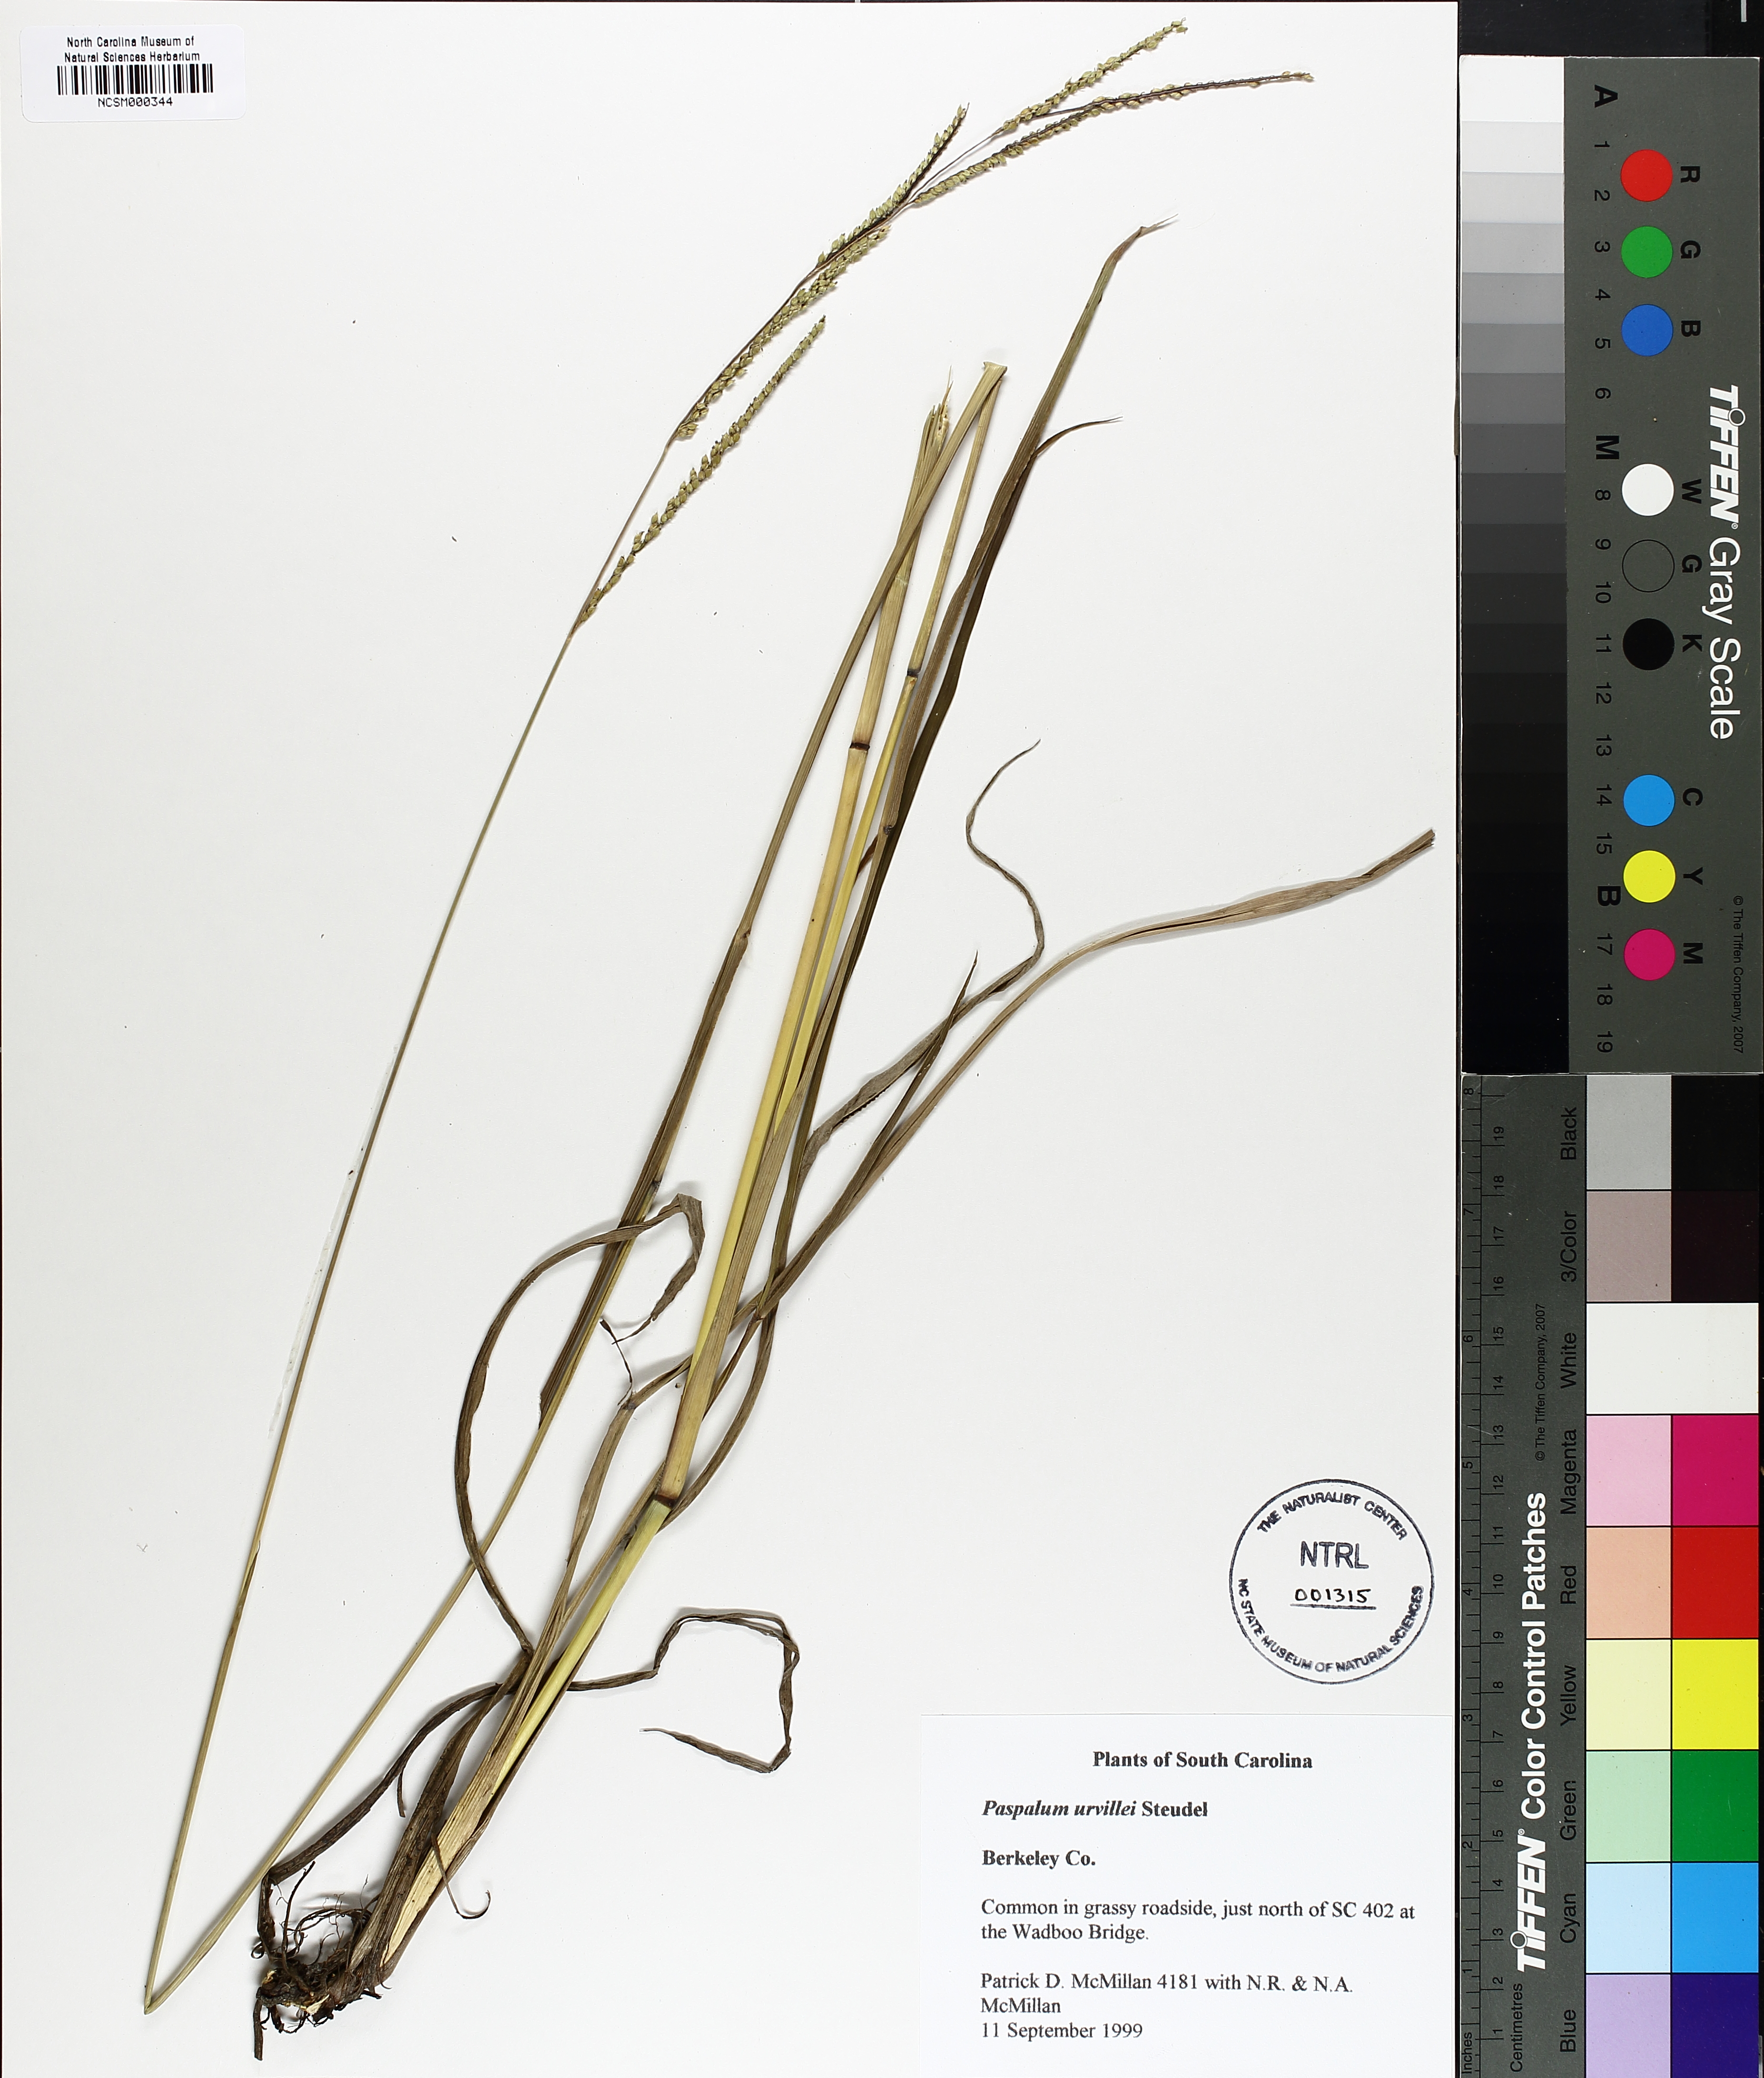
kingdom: Plantae
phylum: Tracheophyta
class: Liliopsida
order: Poales
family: Poaceae
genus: Paspalum
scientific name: Paspalum urvillei
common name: Vasey's grass
